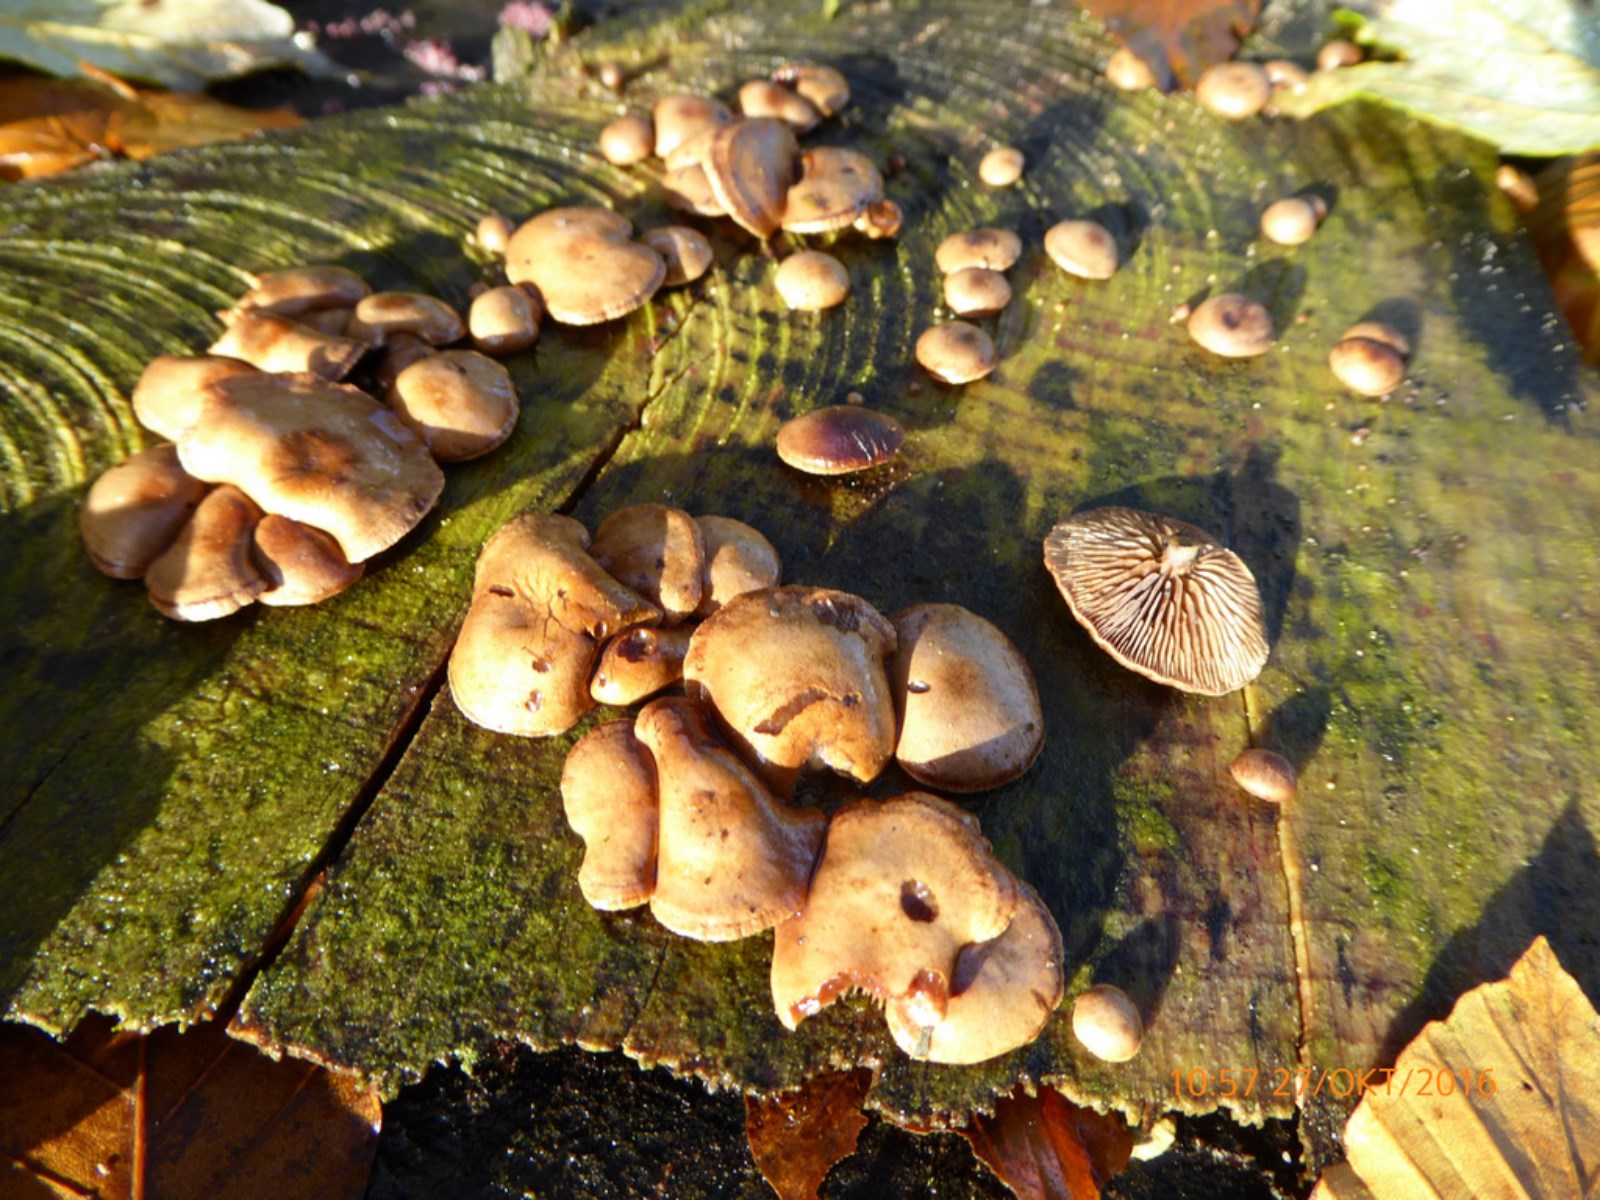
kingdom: Fungi
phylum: Basidiomycota
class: Agaricomycetes
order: Agaricales
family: Strophariaceae
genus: Deconica
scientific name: Deconica horizontalis
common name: ved-stråhat
